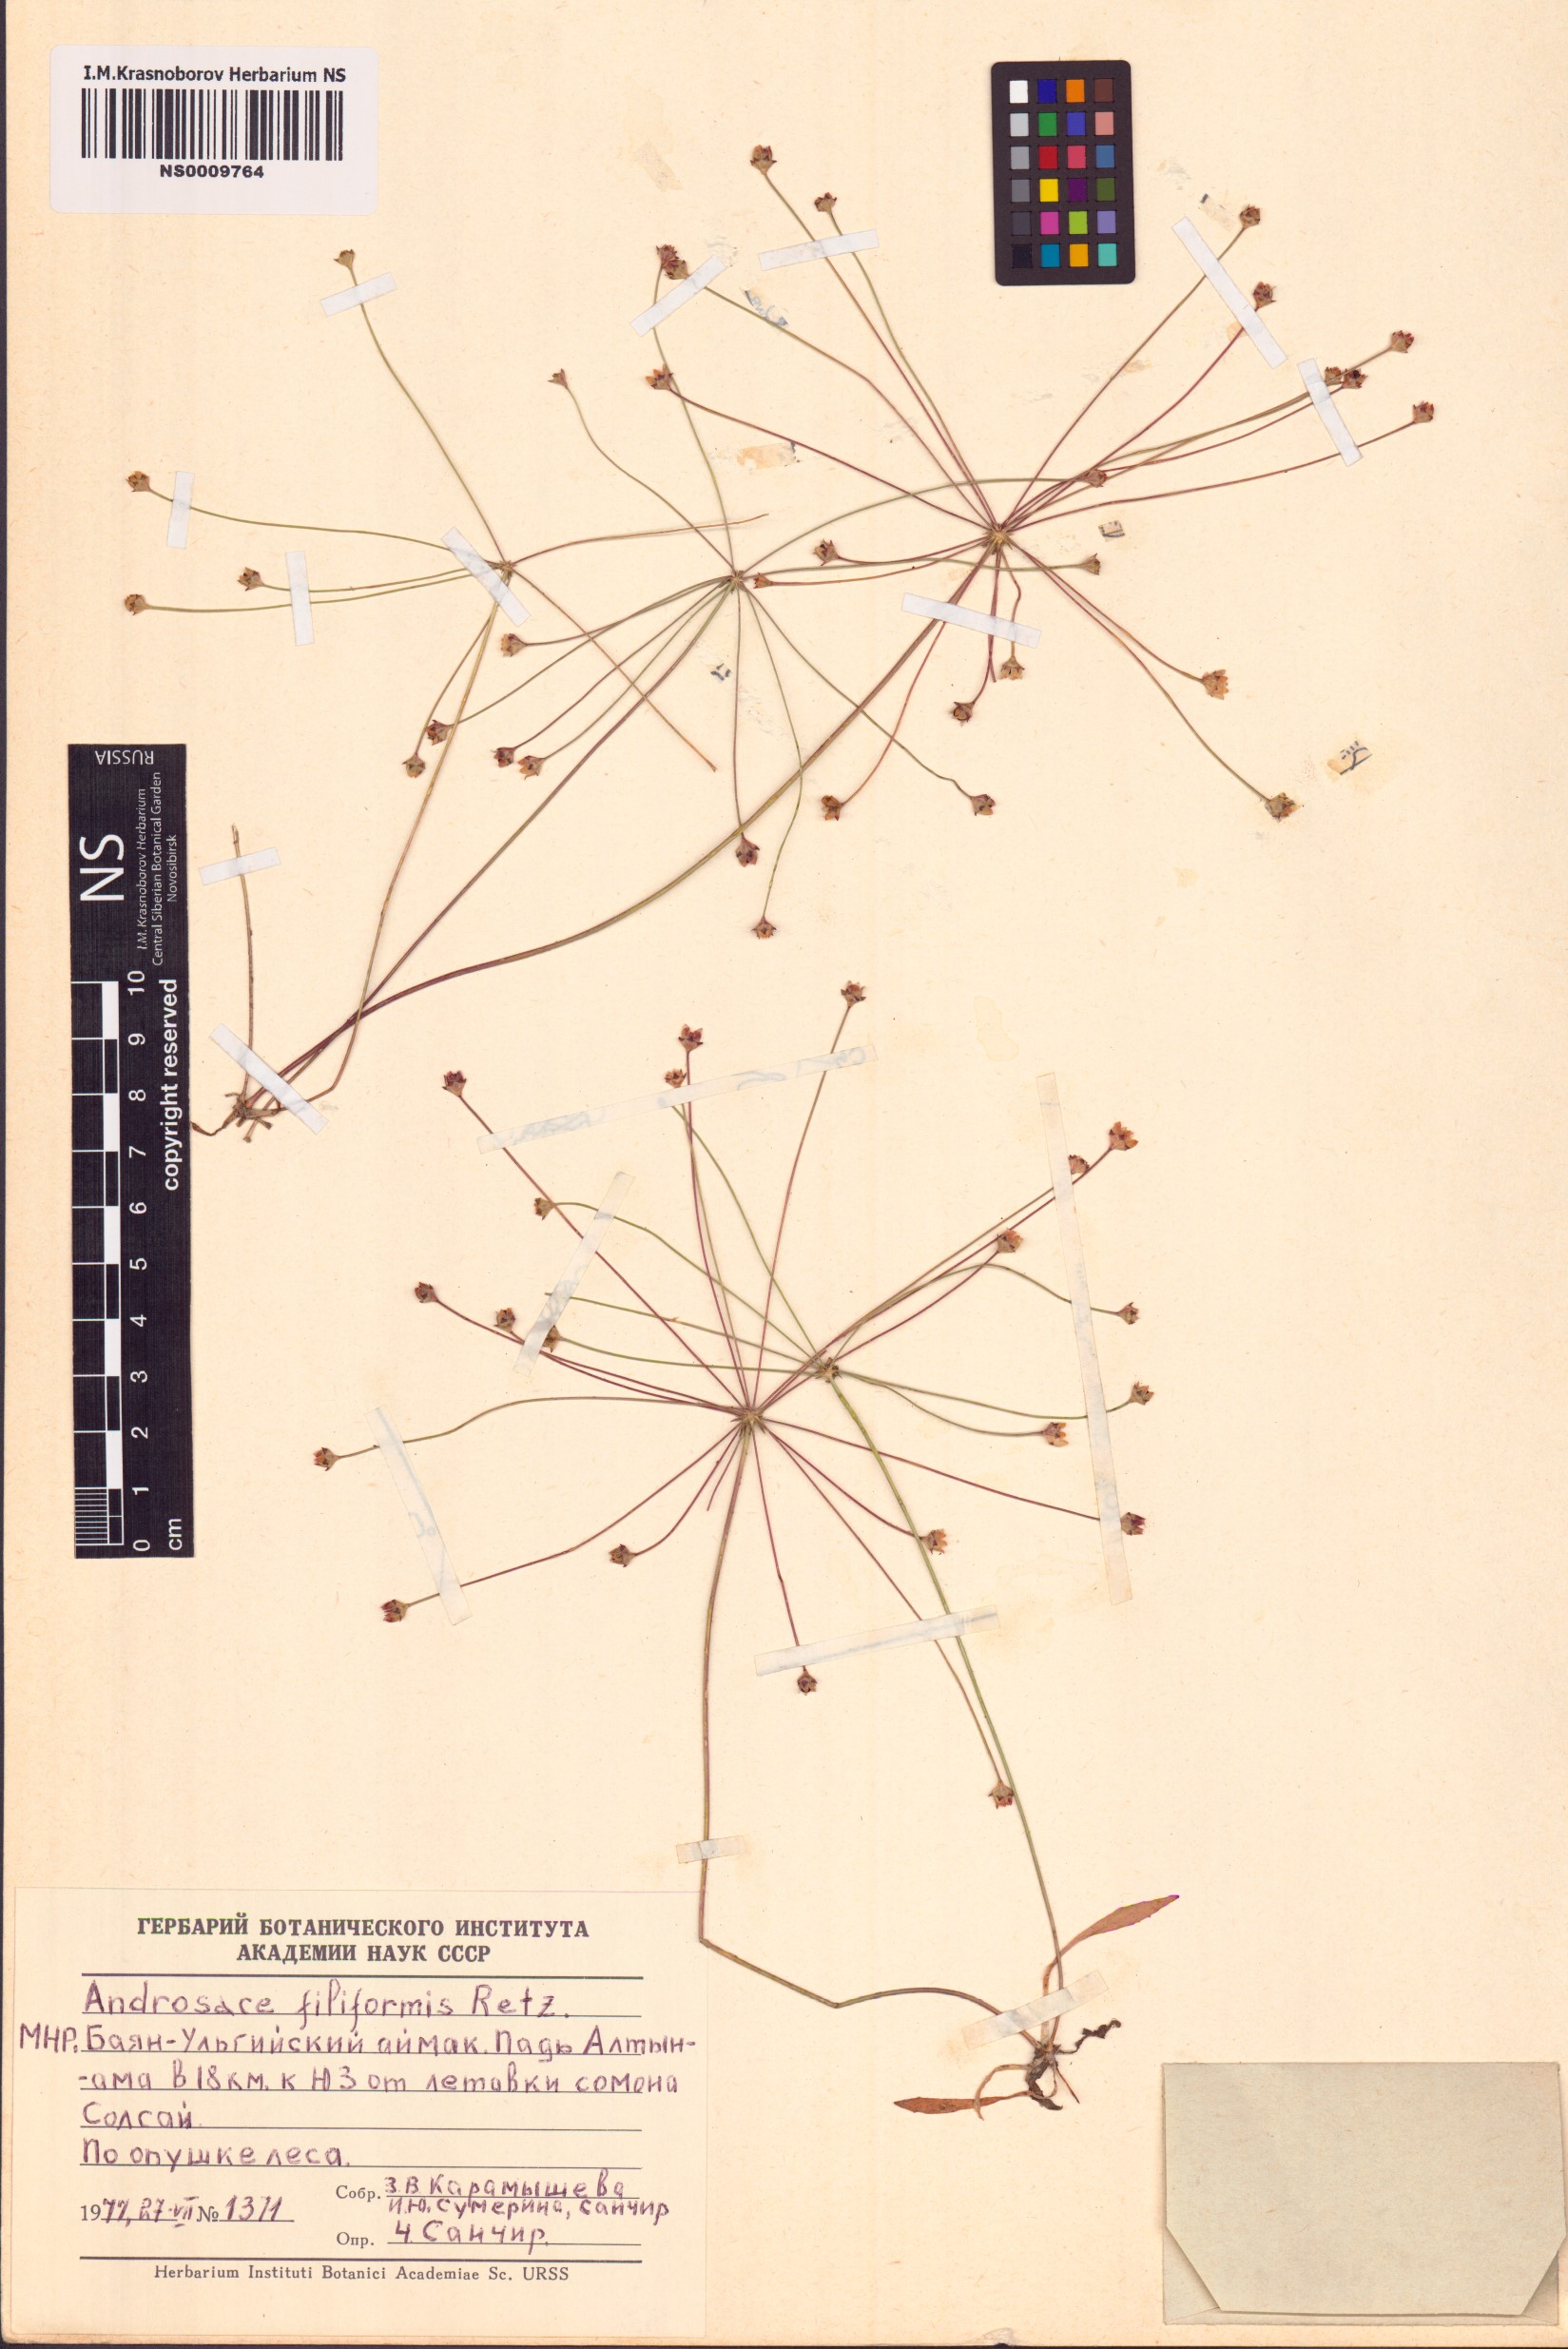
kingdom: Plantae
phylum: Tracheophyta
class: Magnoliopsida
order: Ericales
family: Primulaceae
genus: Androsace
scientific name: Androsace filiformis
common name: Filiform rock jasmine
